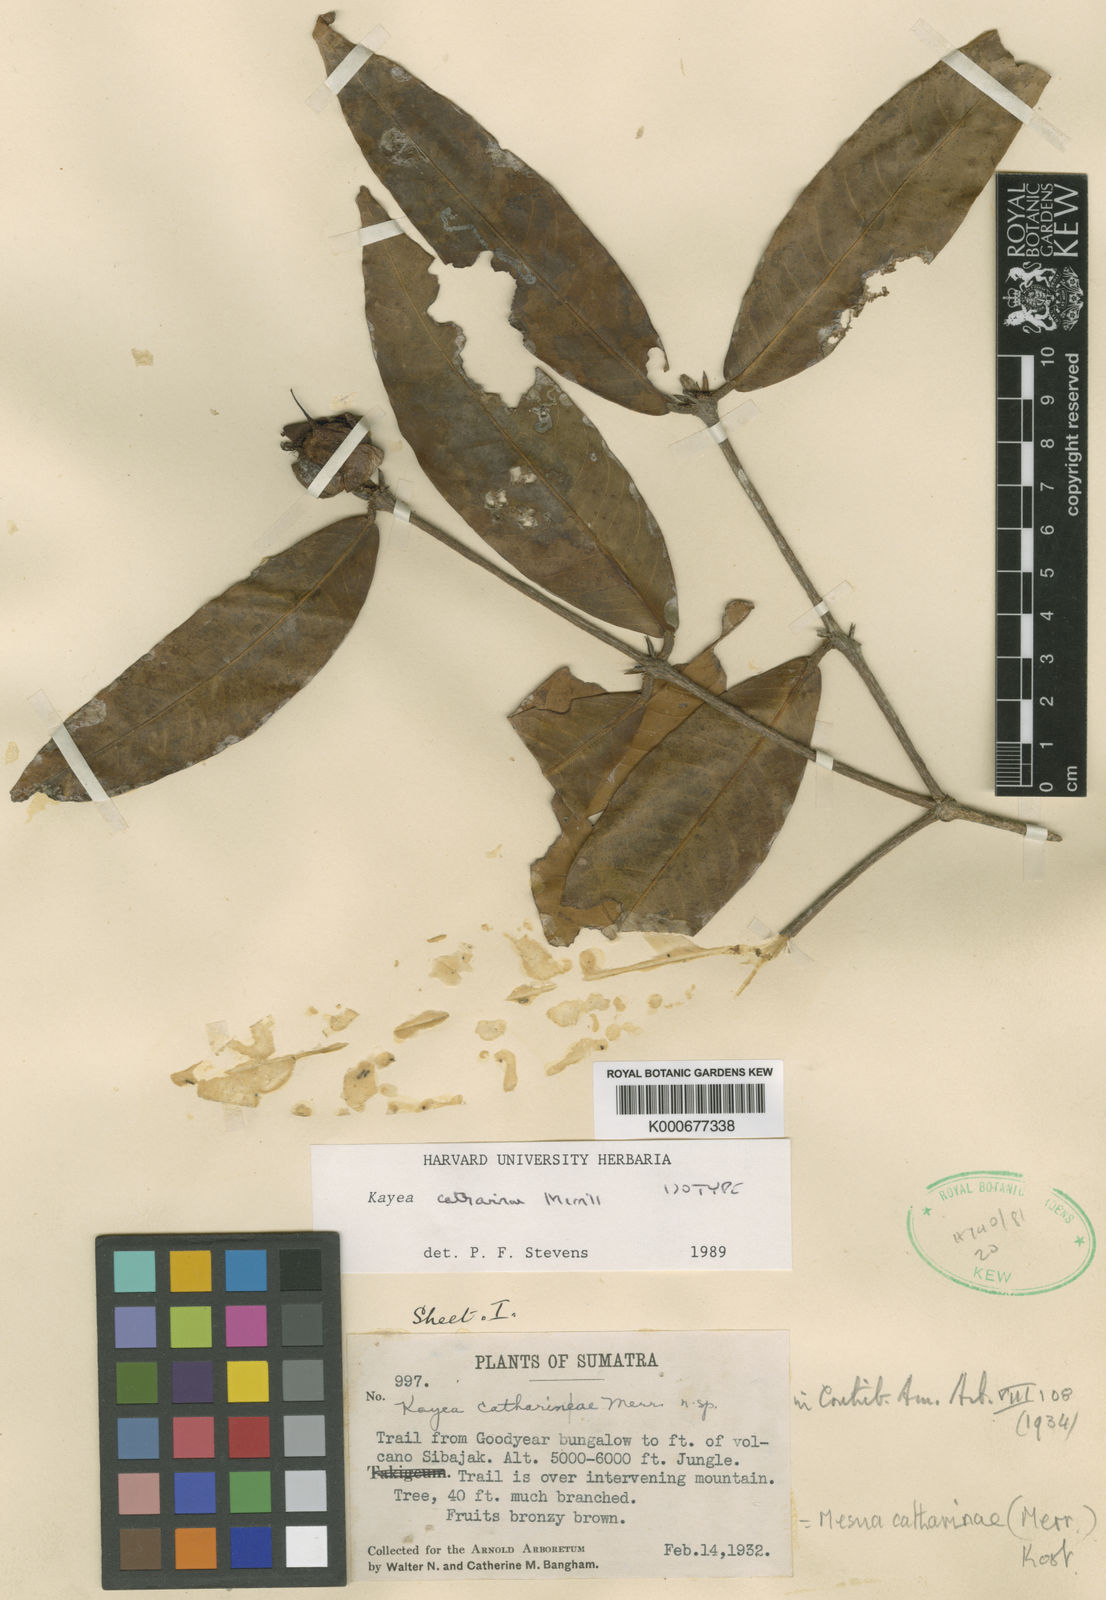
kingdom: Plantae
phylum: Tracheophyta
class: Magnoliopsida
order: Malpighiales
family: Calophyllaceae
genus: Kayea
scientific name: Kayea catharinae
